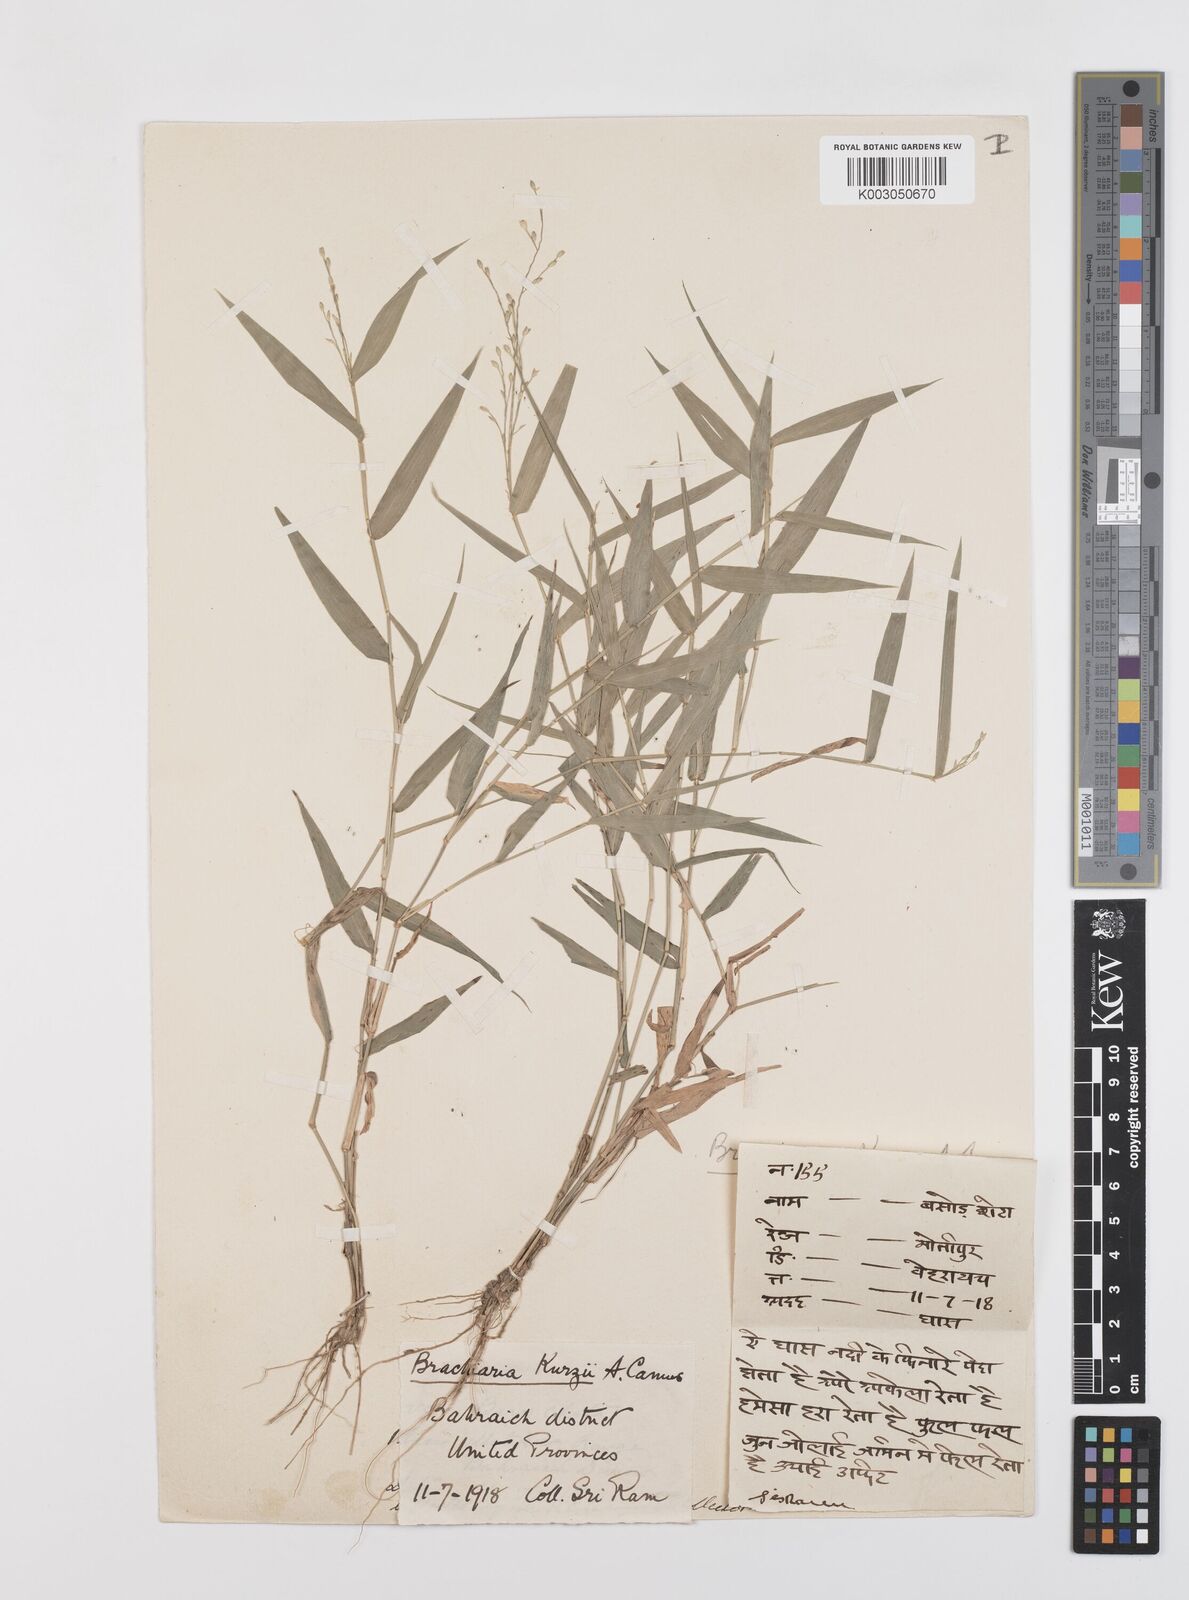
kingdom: Plantae
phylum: Tracheophyta
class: Liliopsida
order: Poales
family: Poaceae
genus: Urochloa
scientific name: Urochloa kurzii
